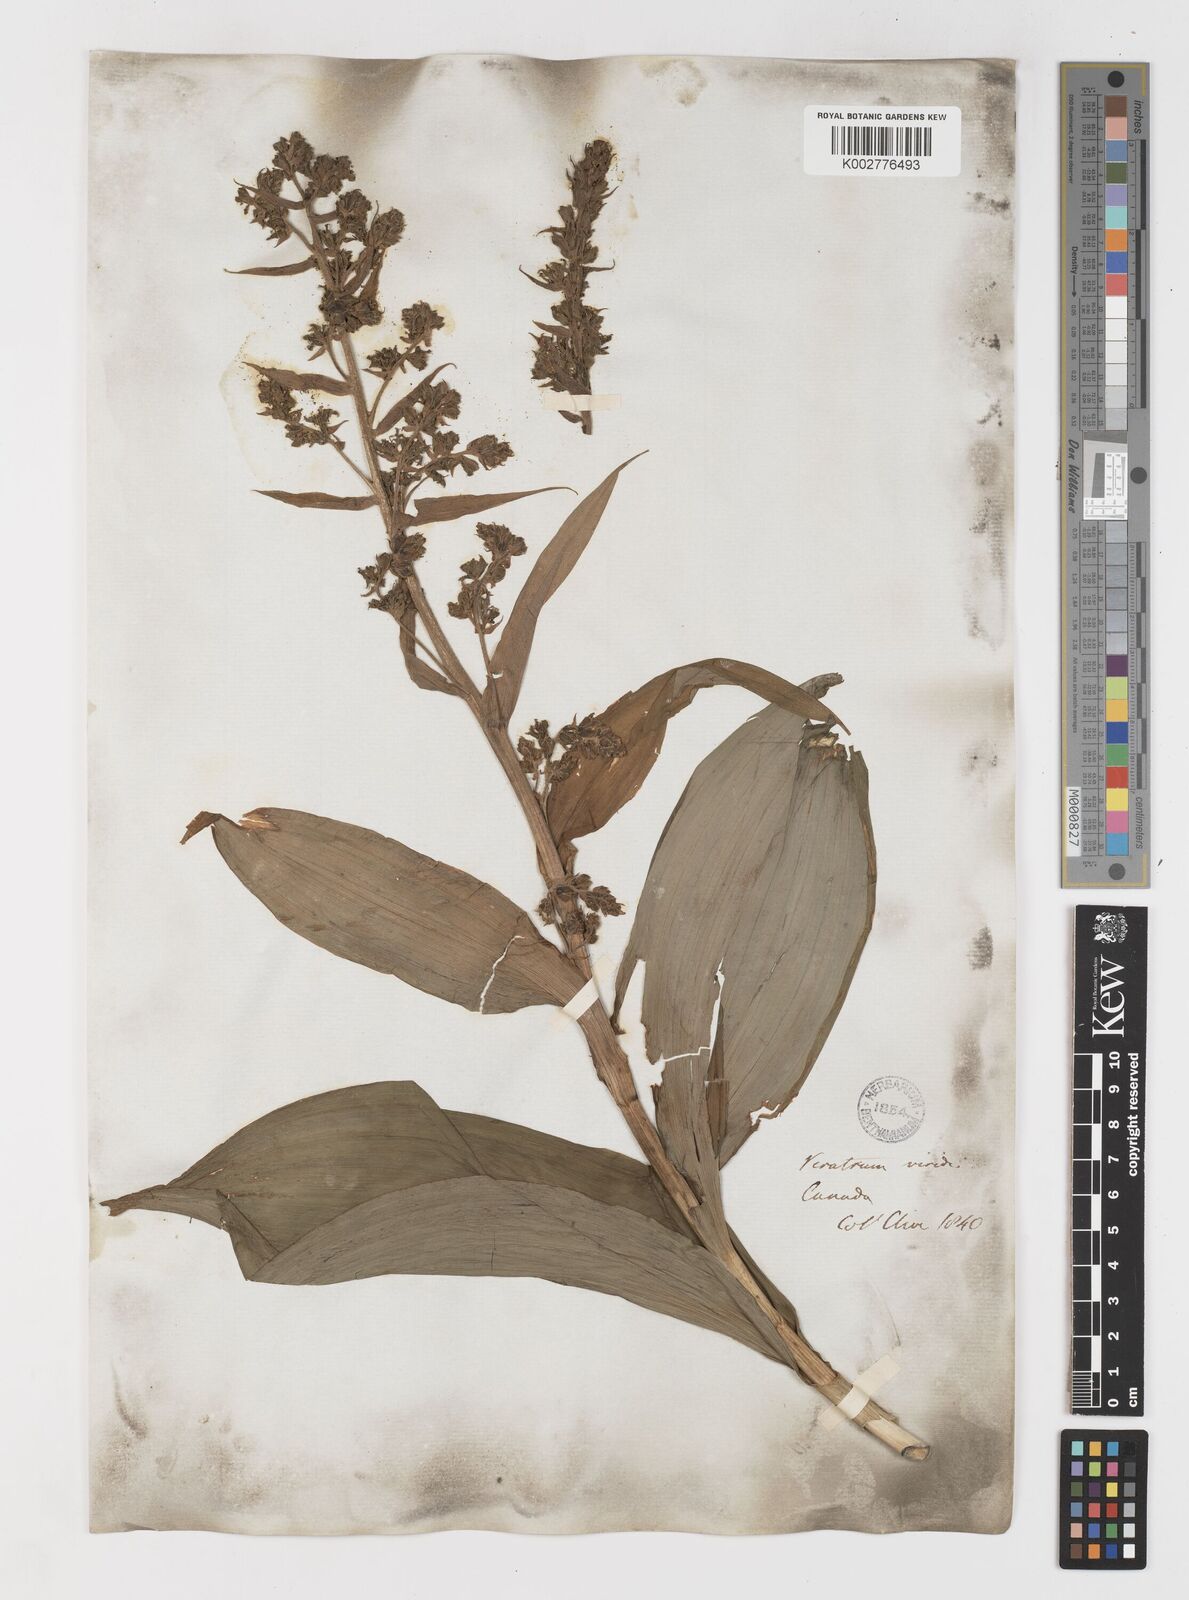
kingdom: Plantae
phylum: Tracheophyta
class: Liliopsida
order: Liliales
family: Melanthiaceae
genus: Veratrum
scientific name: Veratrum viride
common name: American false hellebore
